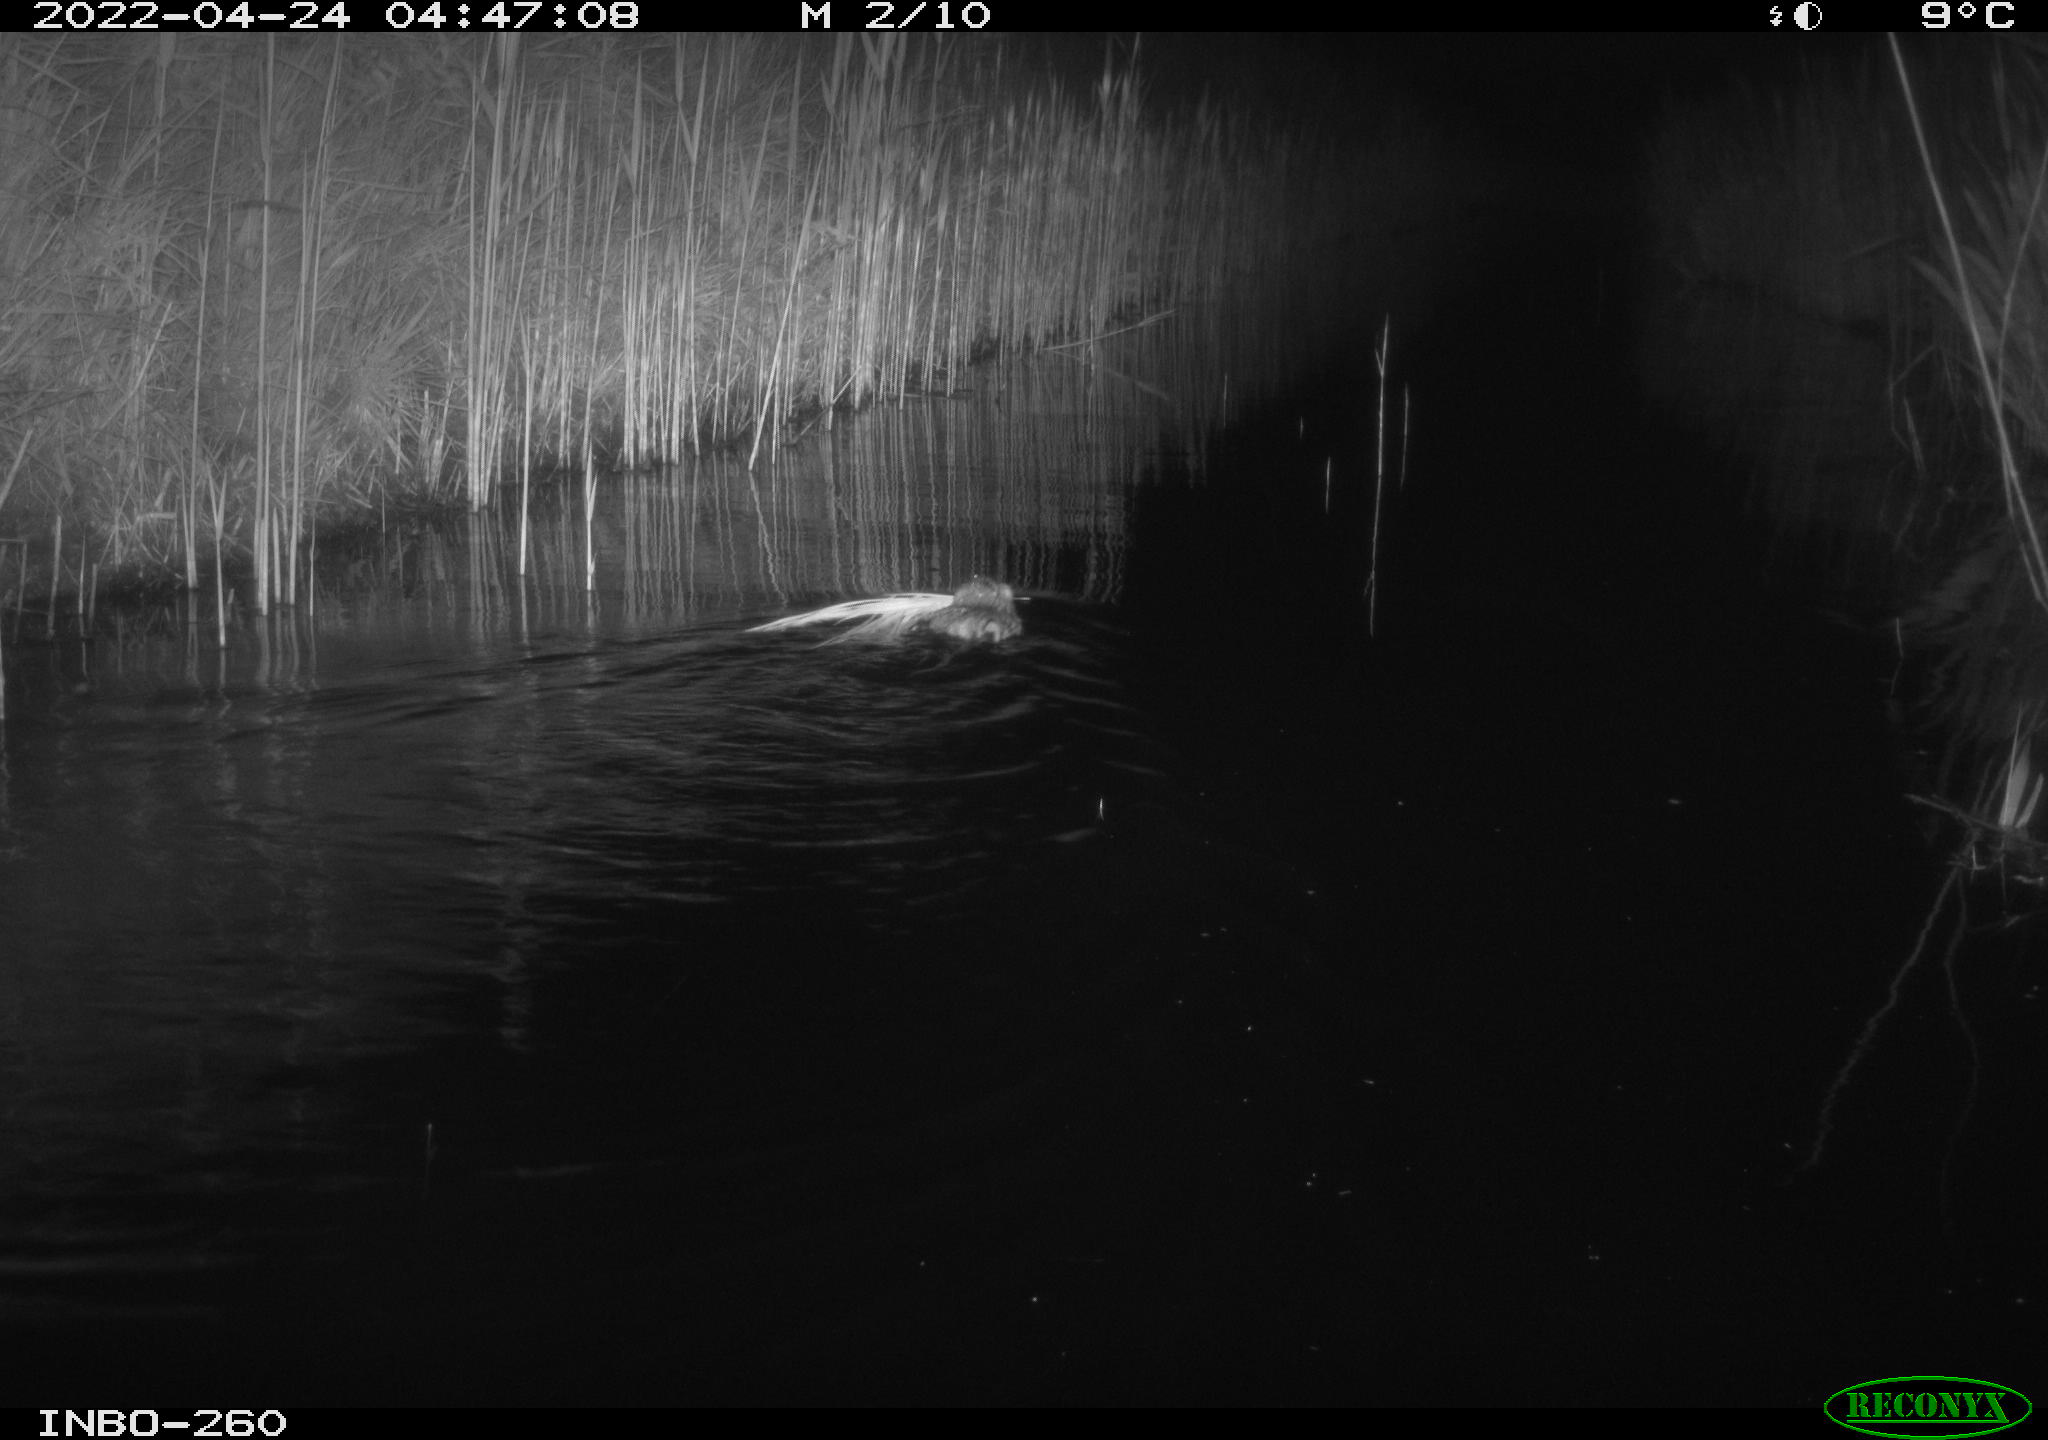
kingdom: Animalia
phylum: Chordata
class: Mammalia
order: Rodentia
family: Cricetidae
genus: Ondatra
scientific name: Ondatra zibethicus
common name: Muskrat
